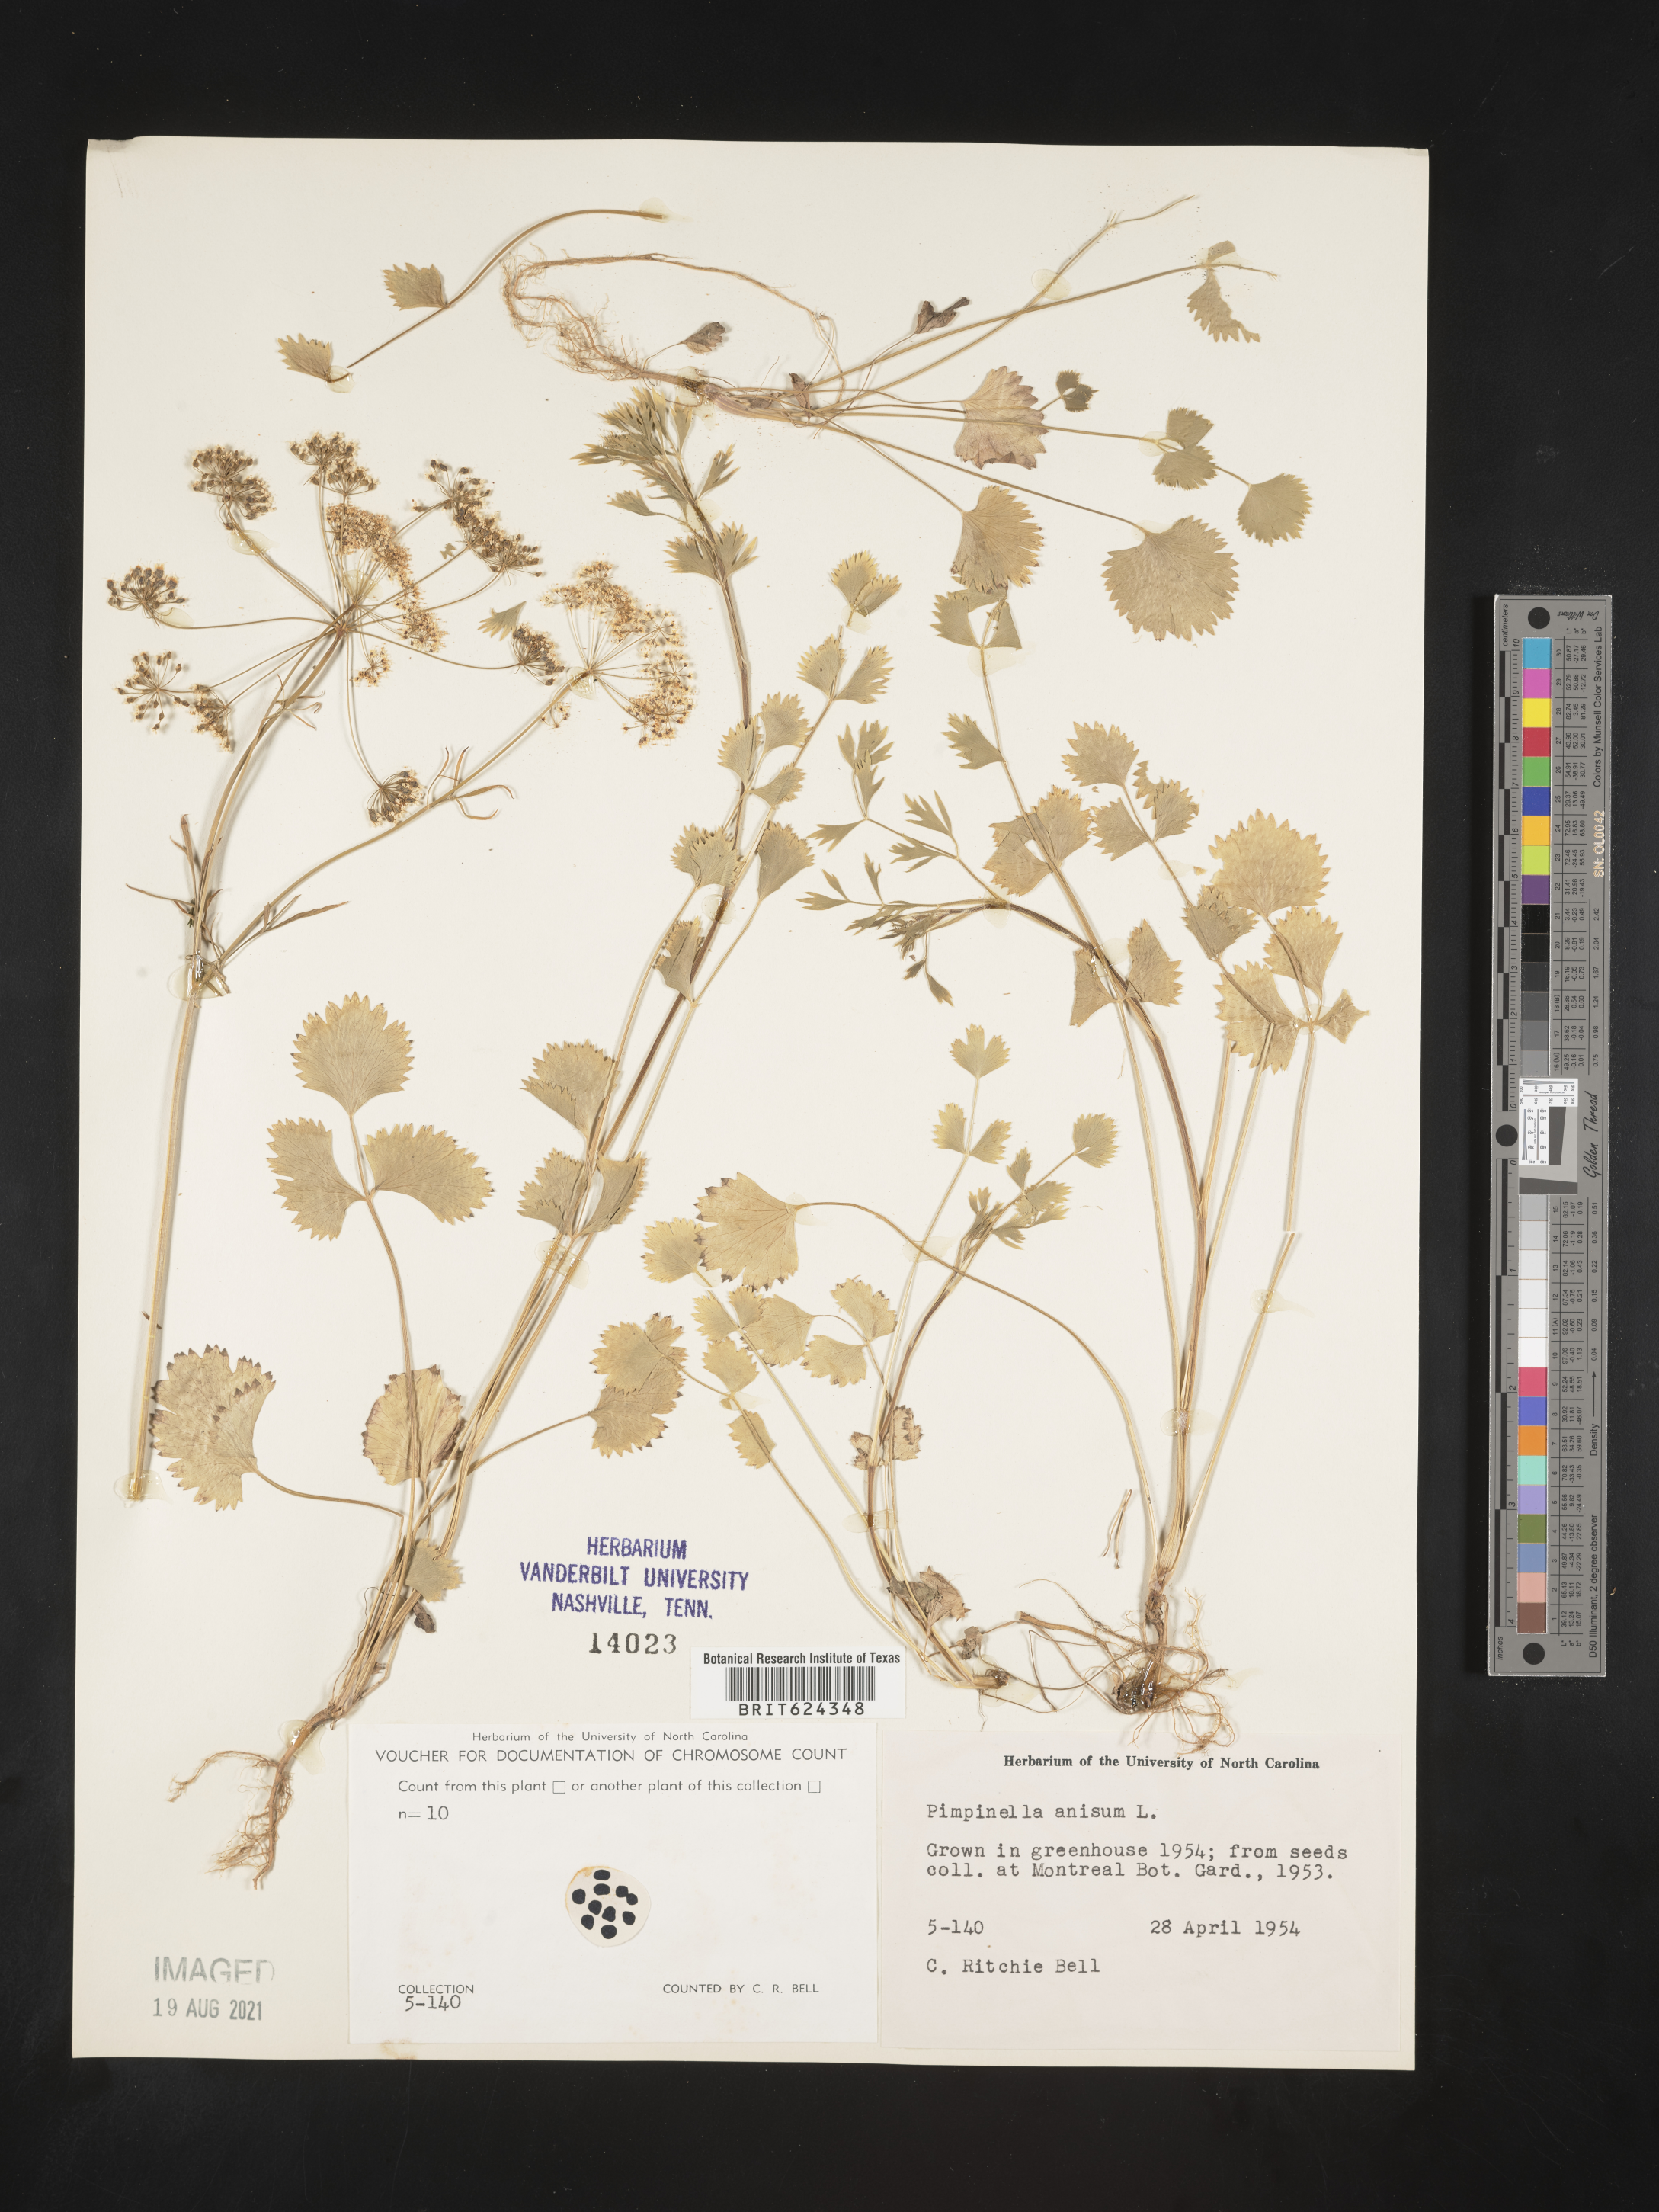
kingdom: Plantae
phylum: Tracheophyta
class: Magnoliopsida
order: Apiales
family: Apiaceae
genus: Pimpinella
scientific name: Pimpinella aromatica
